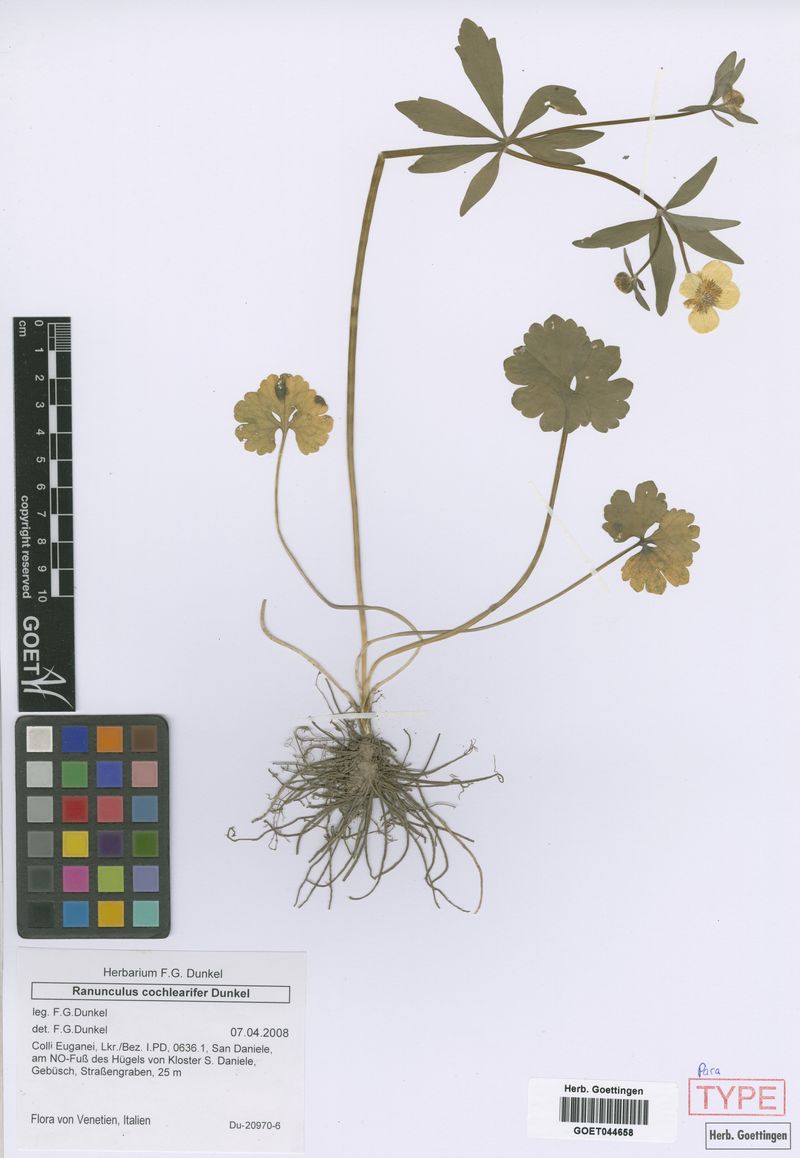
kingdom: Plantae
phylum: Tracheophyta
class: Magnoliopsida
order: Ranunculales
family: Ranunculaceae
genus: Ranunculus
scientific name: Ranunculus cochlearifer
